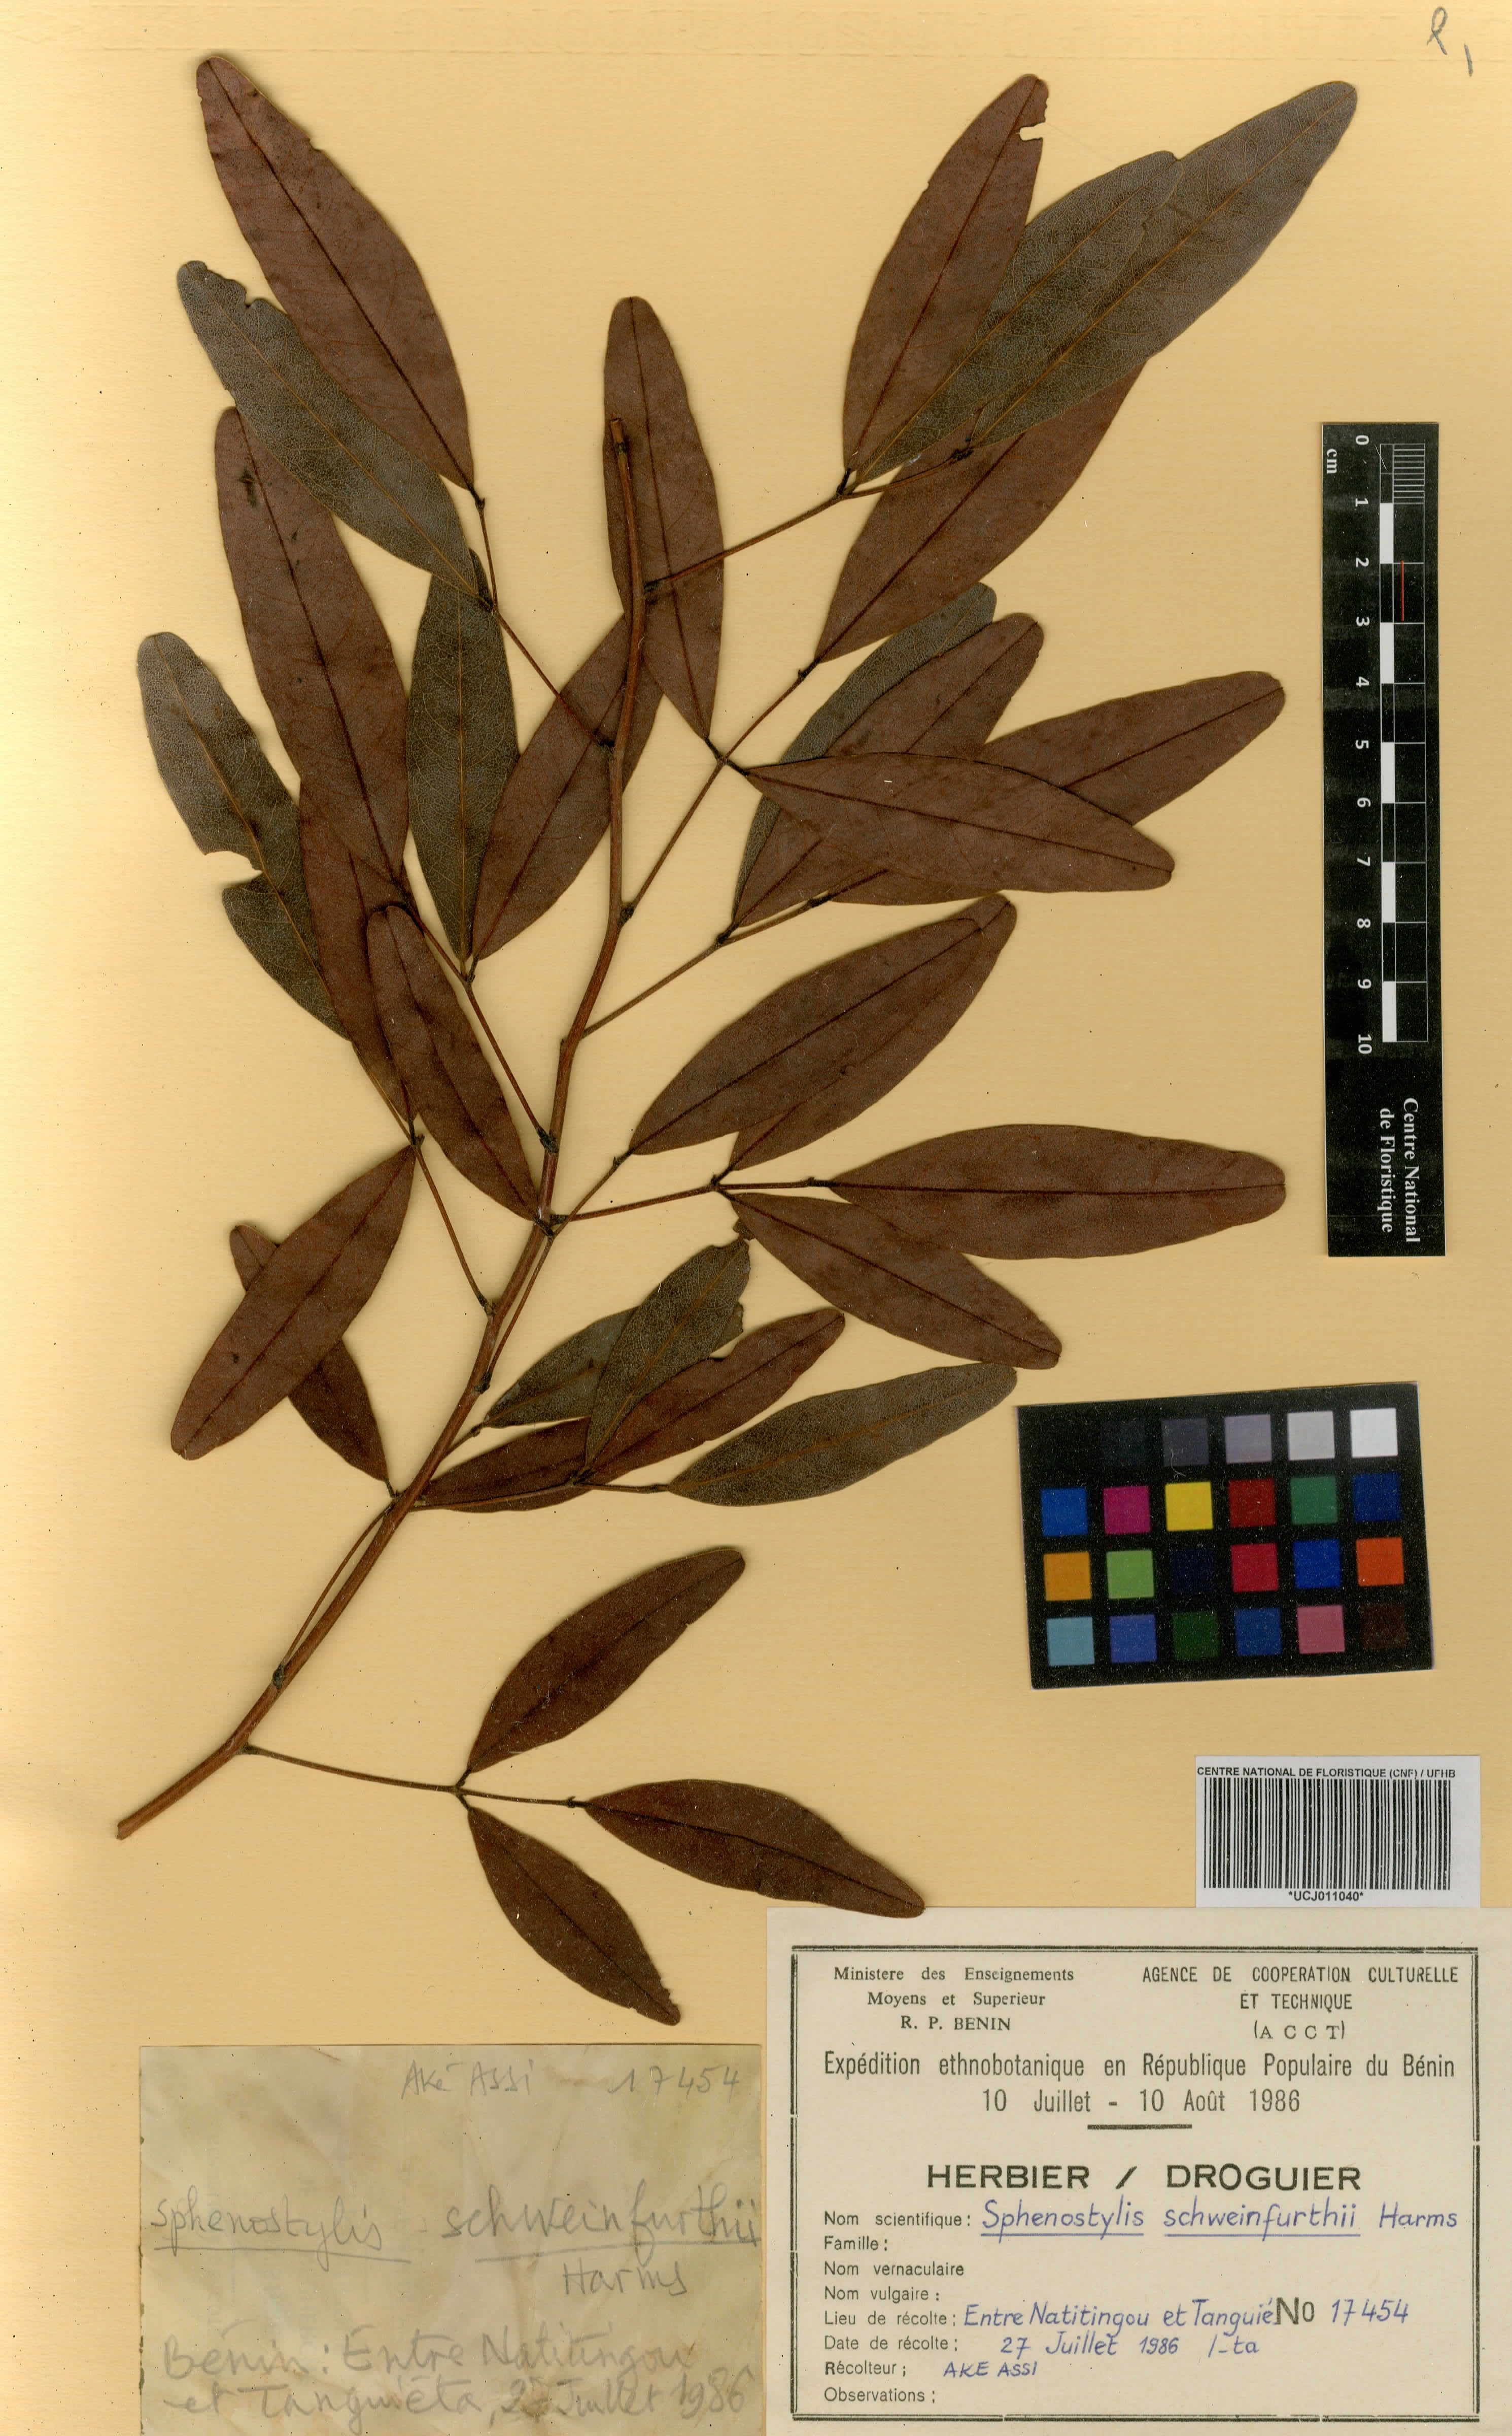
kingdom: Plantae
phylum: Tracheophyta
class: Magnoliopsida
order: Fabales
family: Fabaceae
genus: Sphenostylis
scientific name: Sphenostylis schweinfurthii
